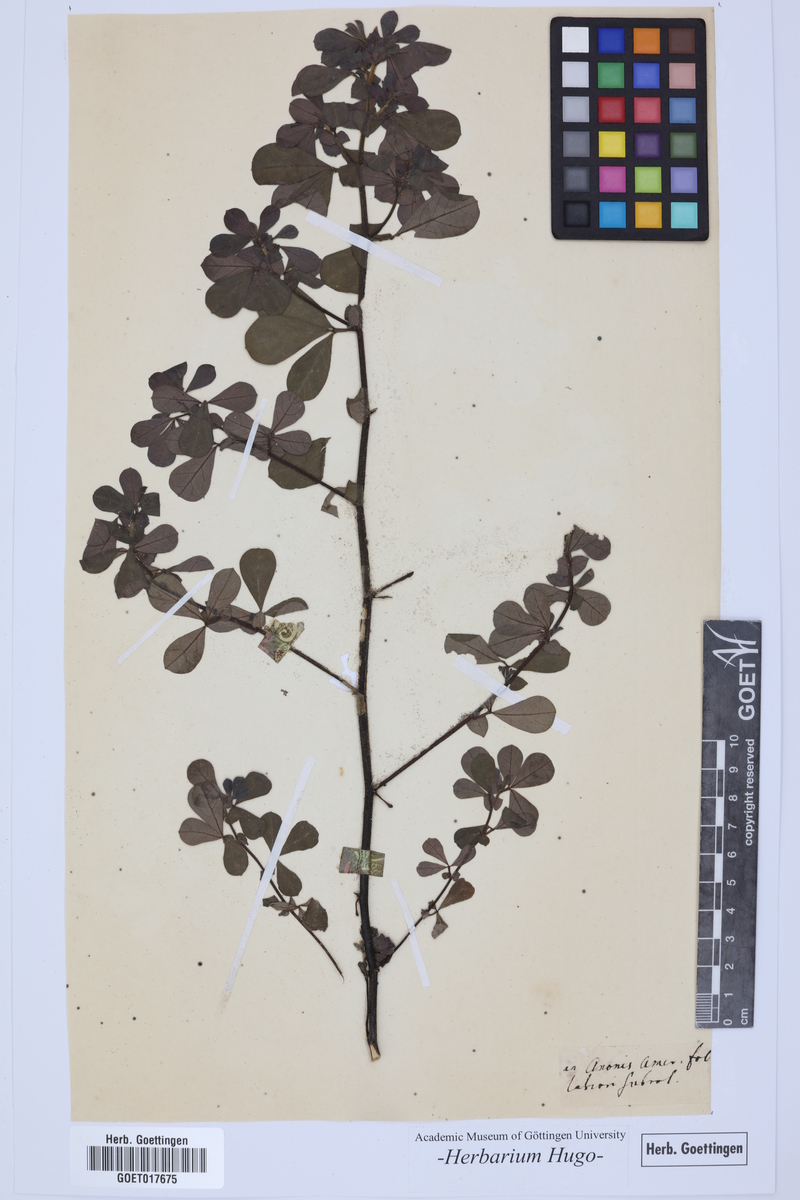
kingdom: Plantae
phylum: Tracheophyta
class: Magnoliopsida
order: Fabales
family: Fabaceae
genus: Anonis
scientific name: Anonis
